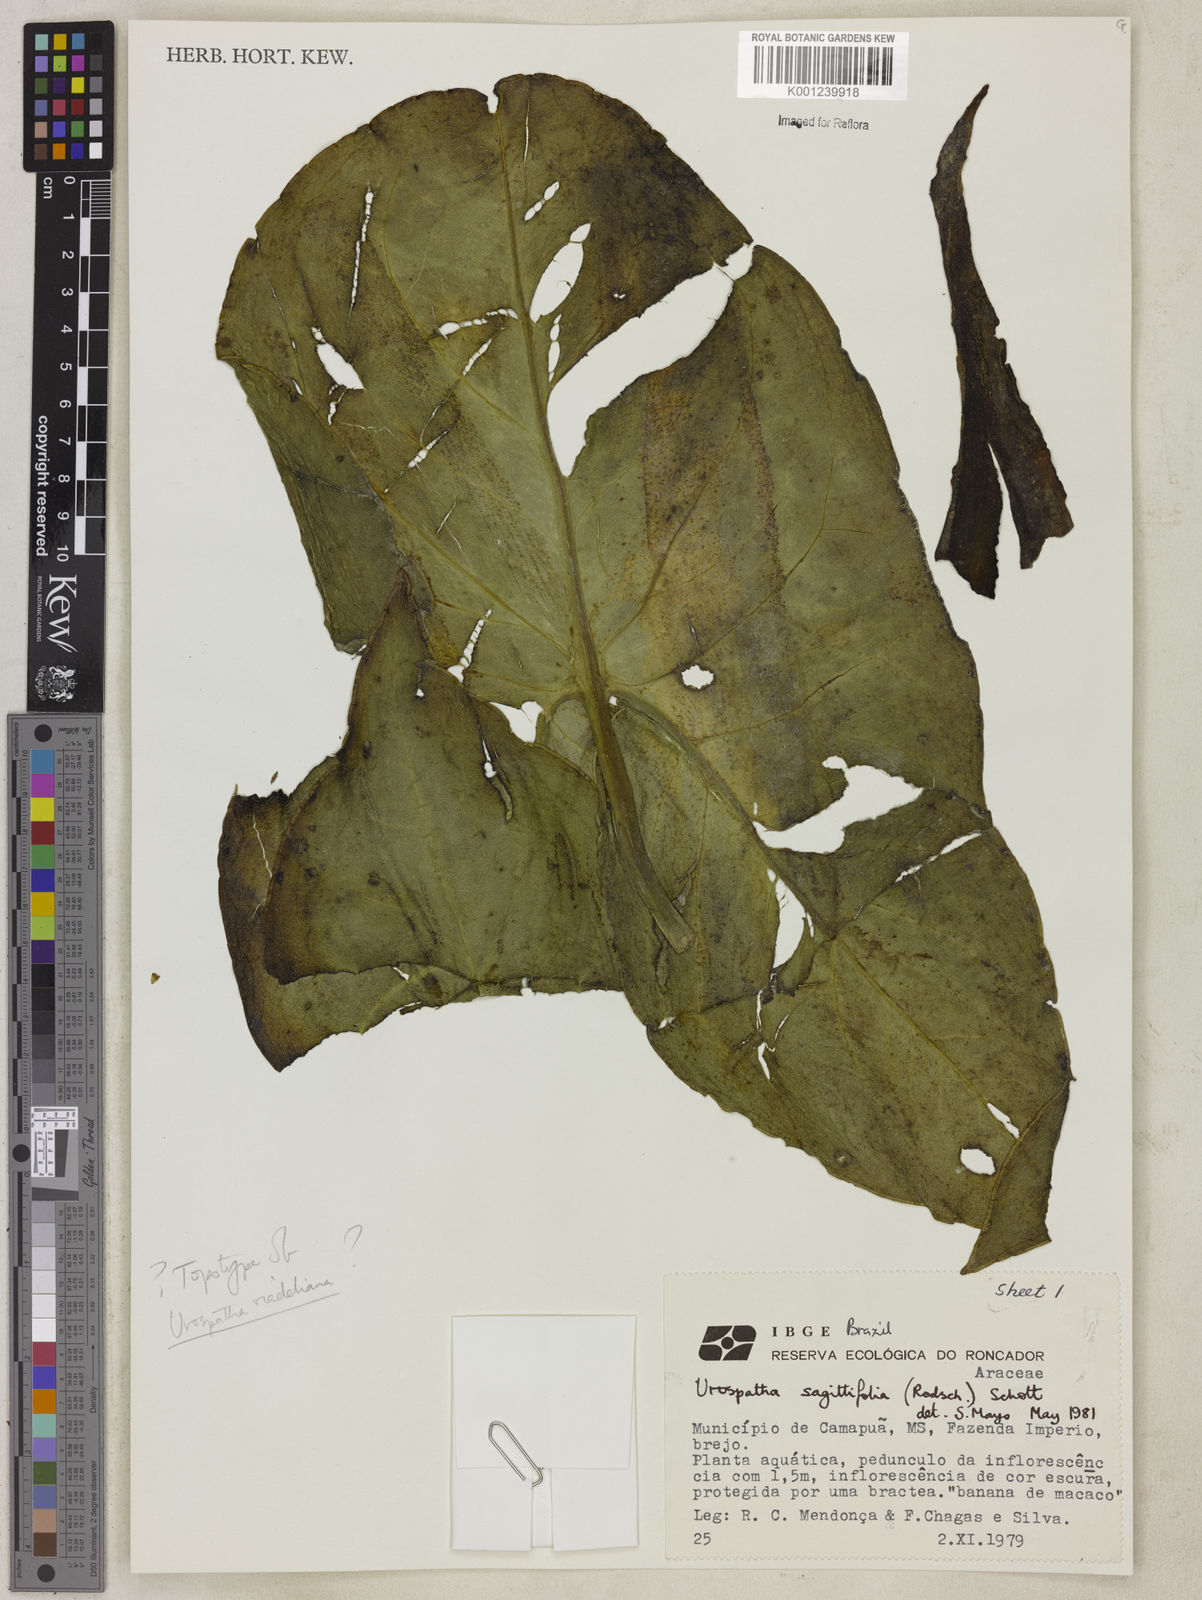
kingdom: Plantae
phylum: Tracheophyta
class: Liliopsida
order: Alismatales
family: Araceae
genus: Urospatha
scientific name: Urospatha sagittifolia
